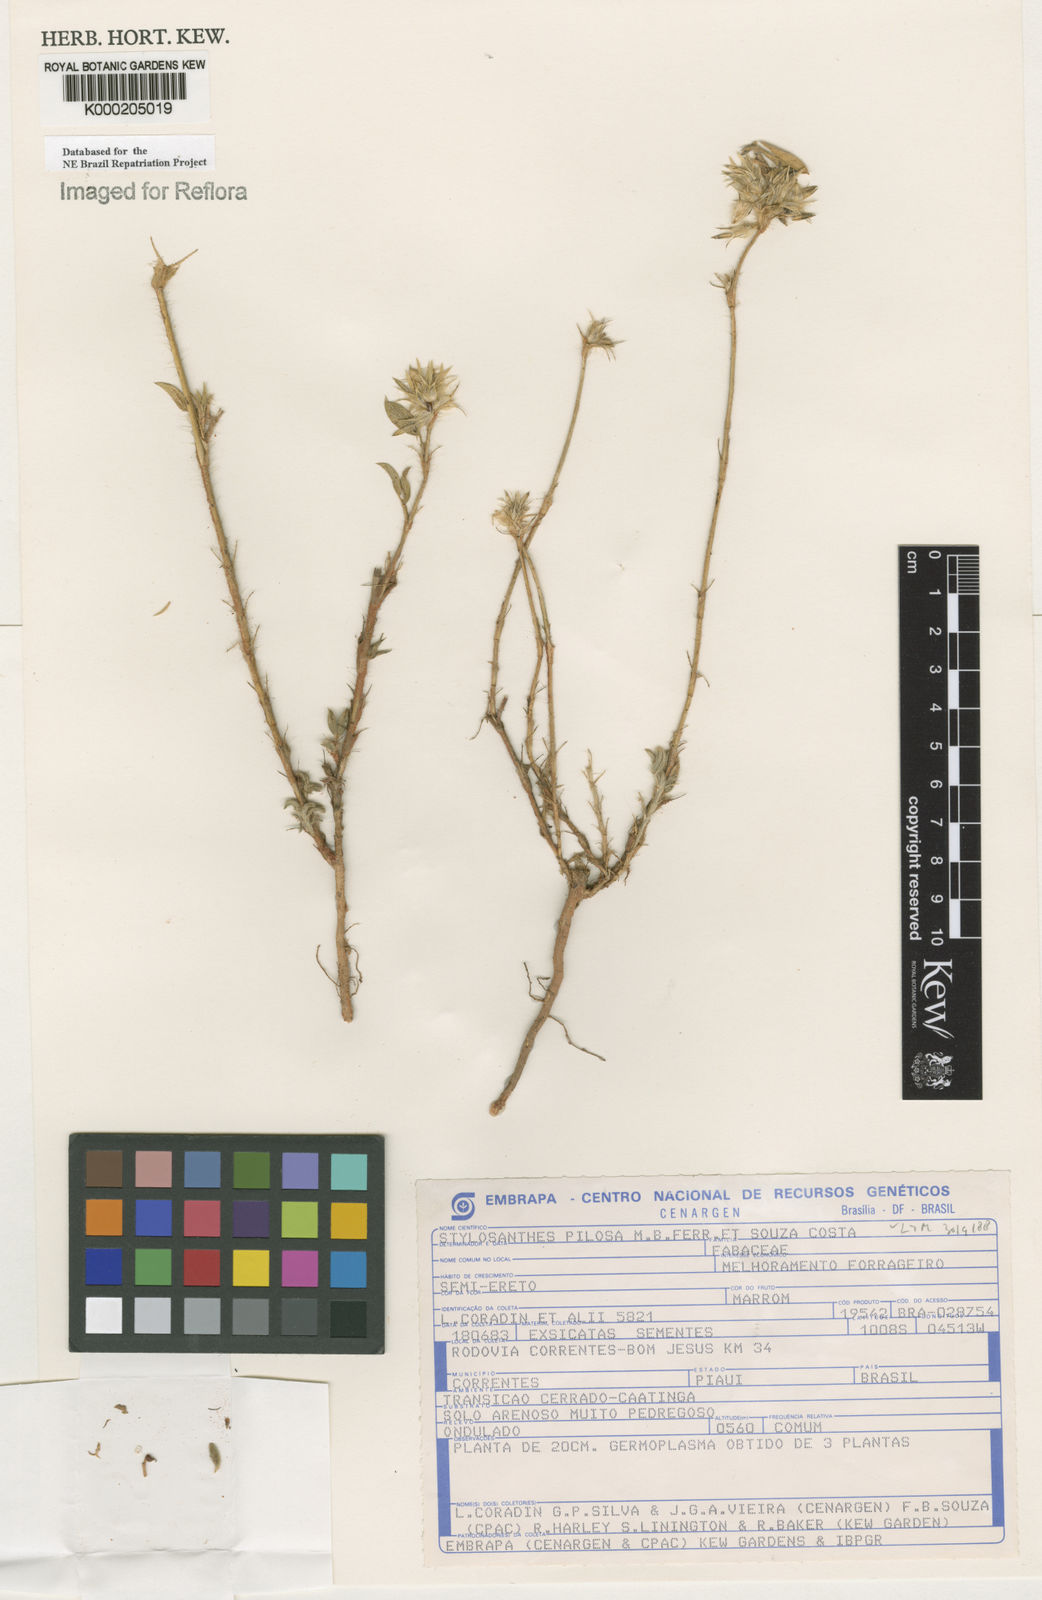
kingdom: Plantae
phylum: Tracheophyta
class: Magnoliopsida
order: Fabales
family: Fabaceae
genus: Stylosanthes
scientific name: Stylosanthes viscosa
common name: Viscid pencil-flower
